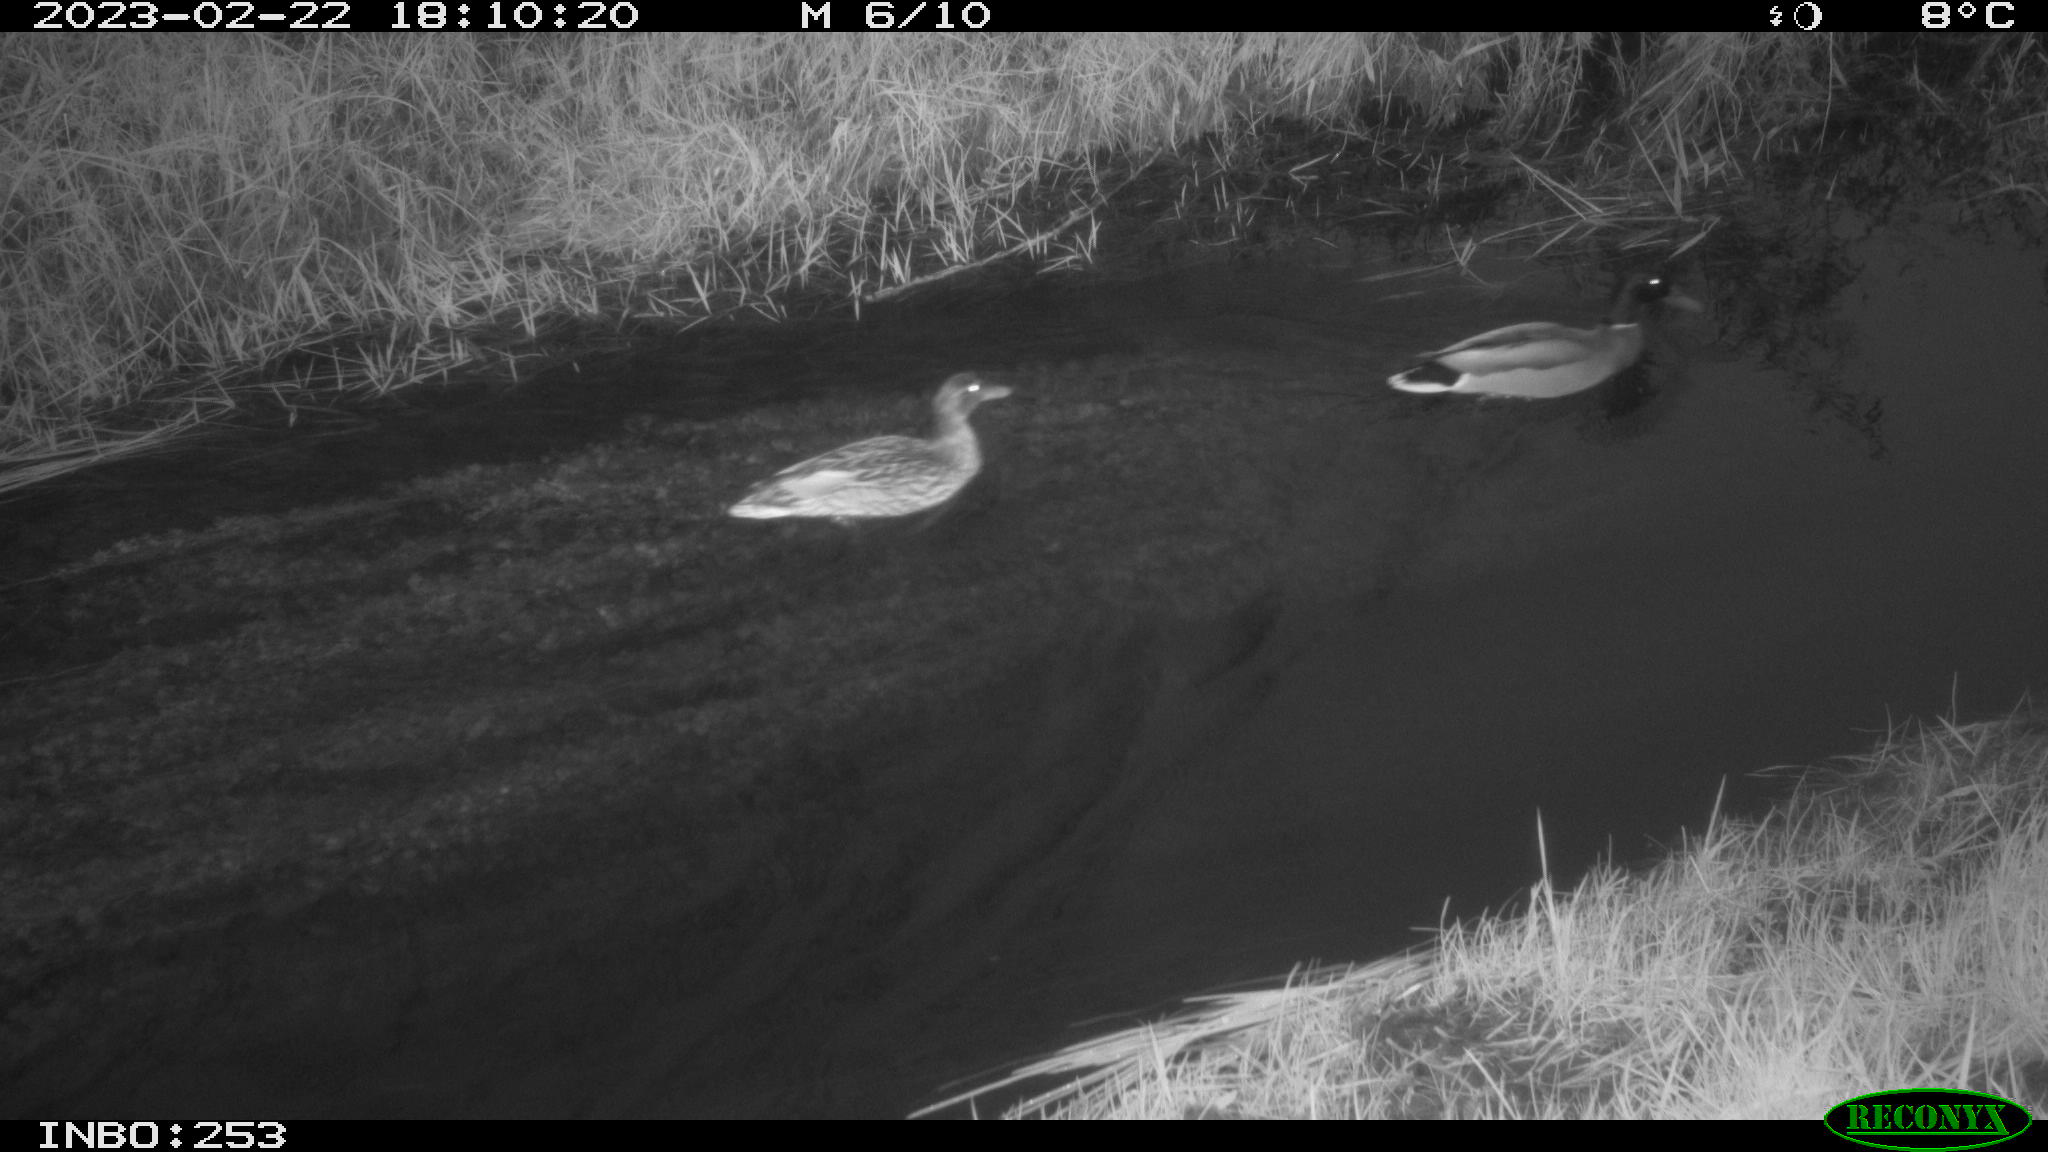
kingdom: Animalia
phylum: Chordata
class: Aves
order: Anseriformes
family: Anatidae
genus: Anas
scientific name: Anas
